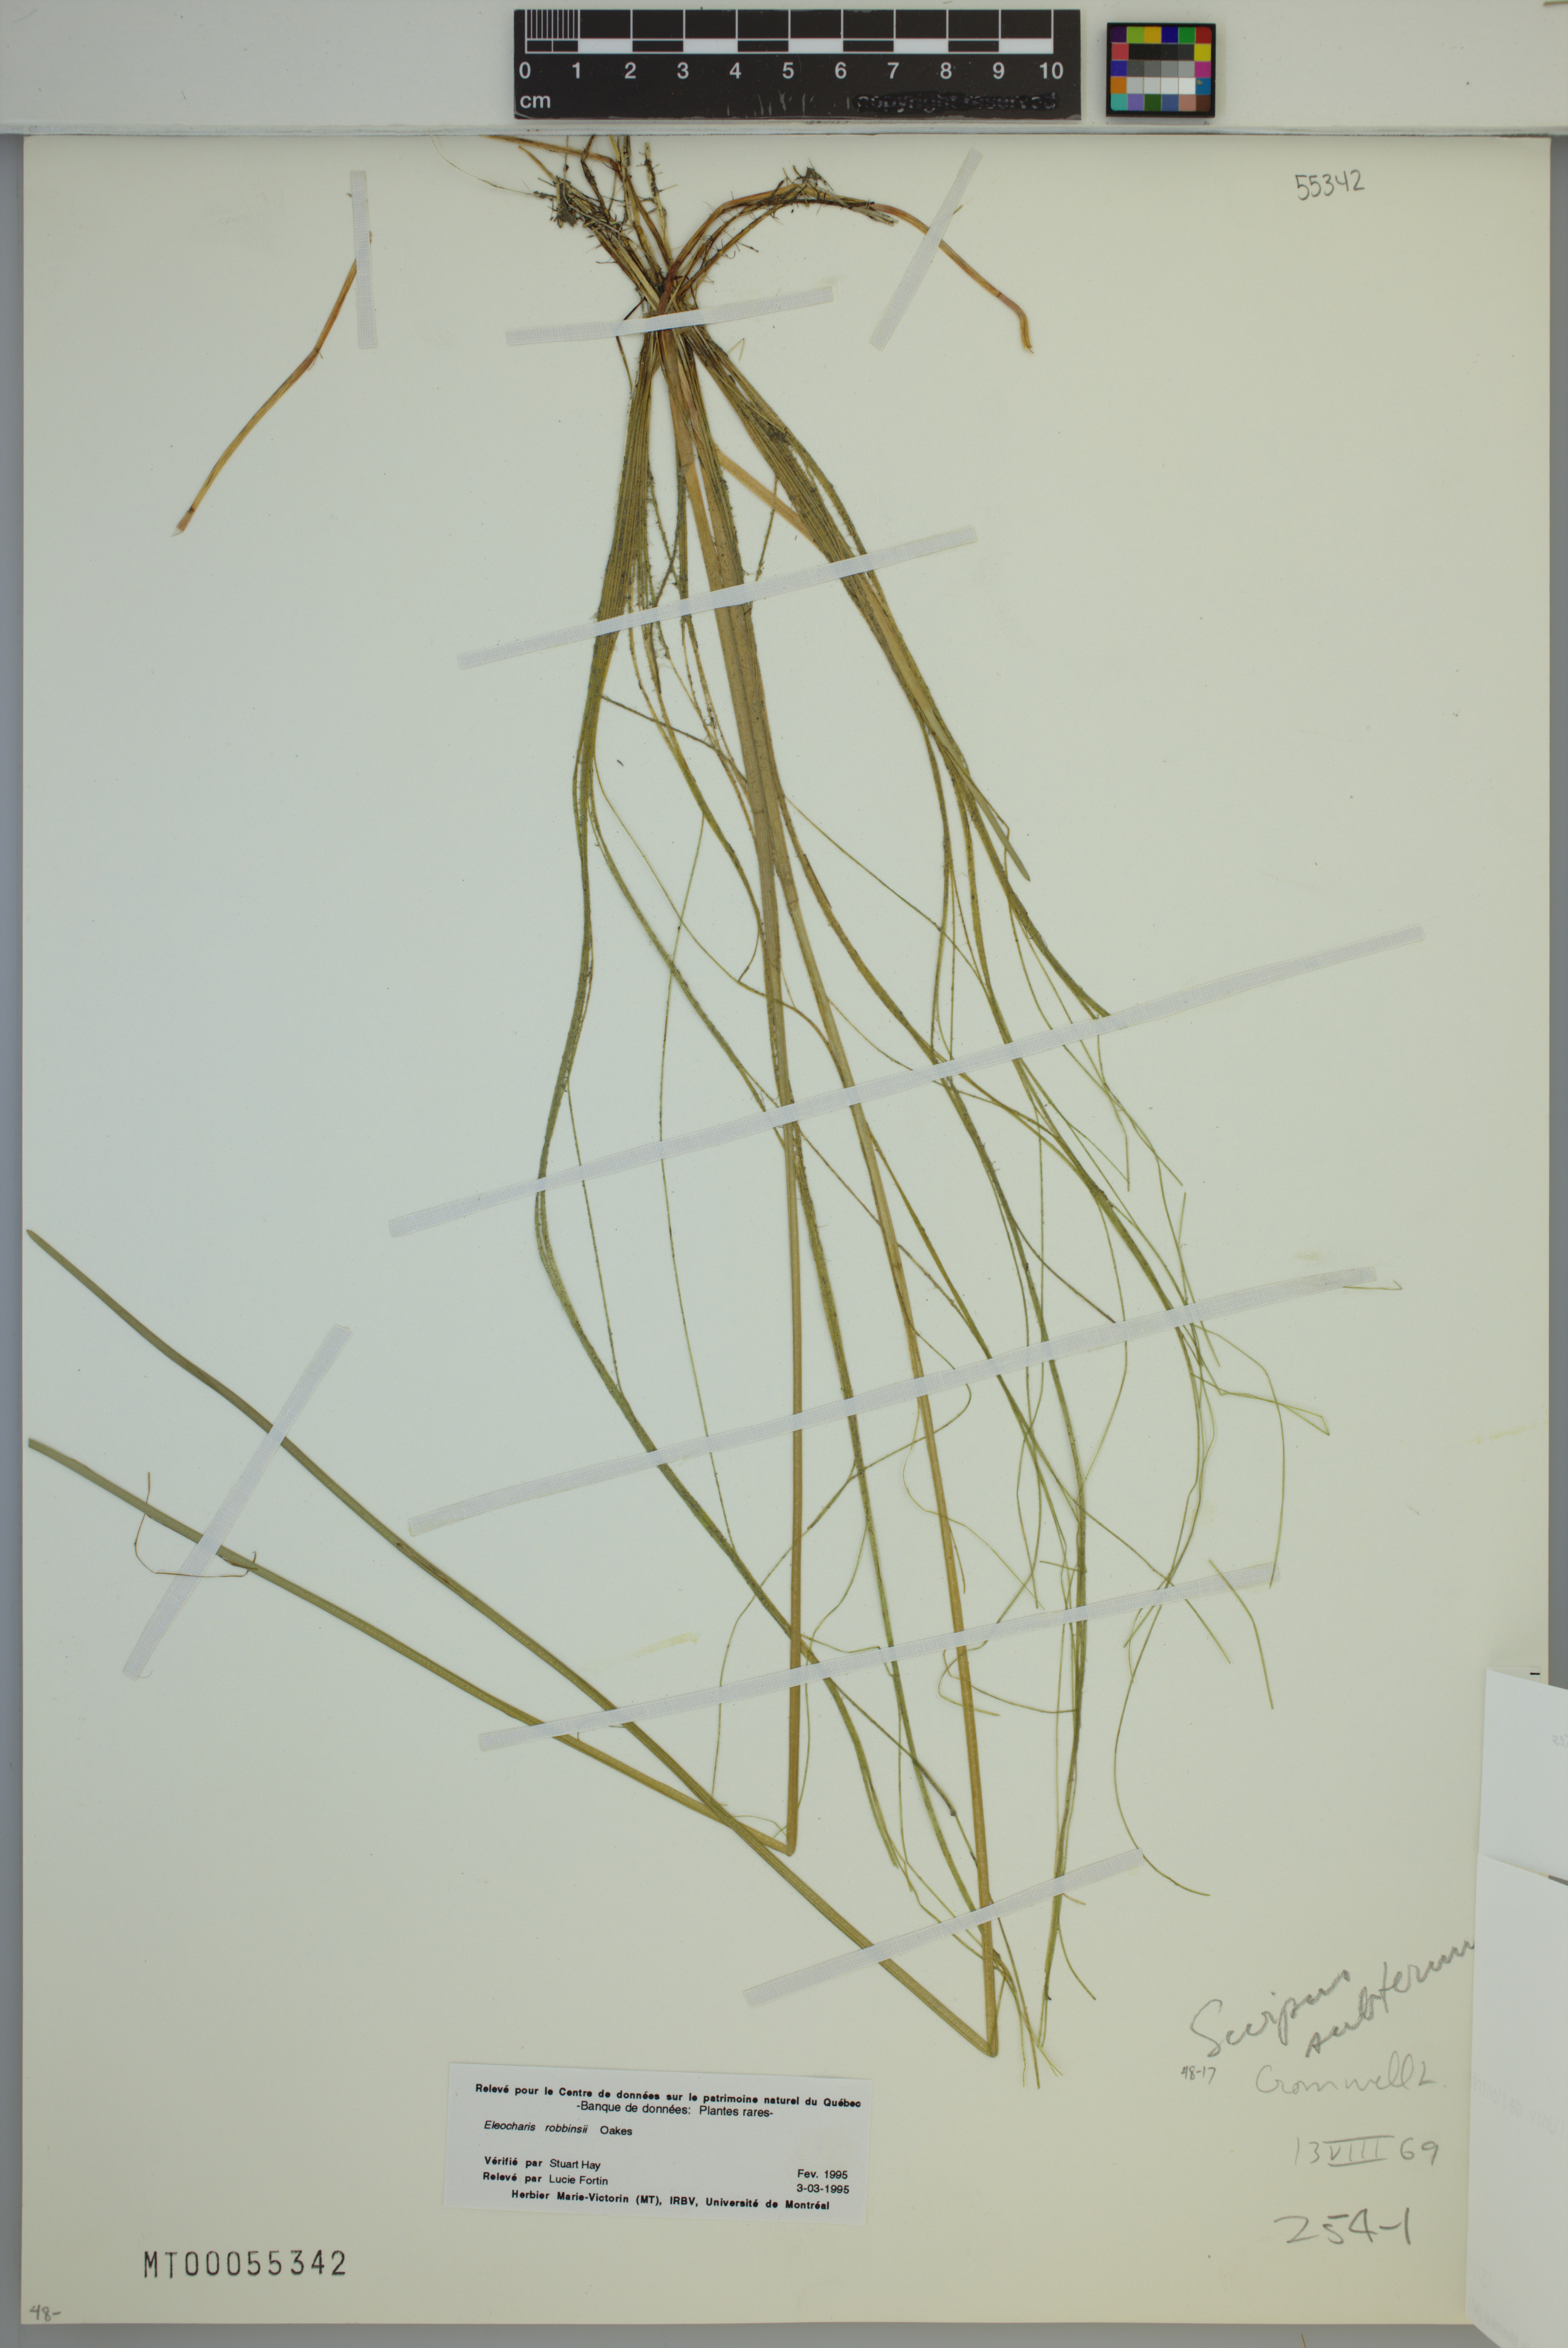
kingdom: Plantae
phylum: Tracheophyta
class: Liliopsida
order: Poales
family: Cyperaceae
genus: Eleocharis
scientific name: Eleocharis robbinsii
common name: Robbins' spikerush
